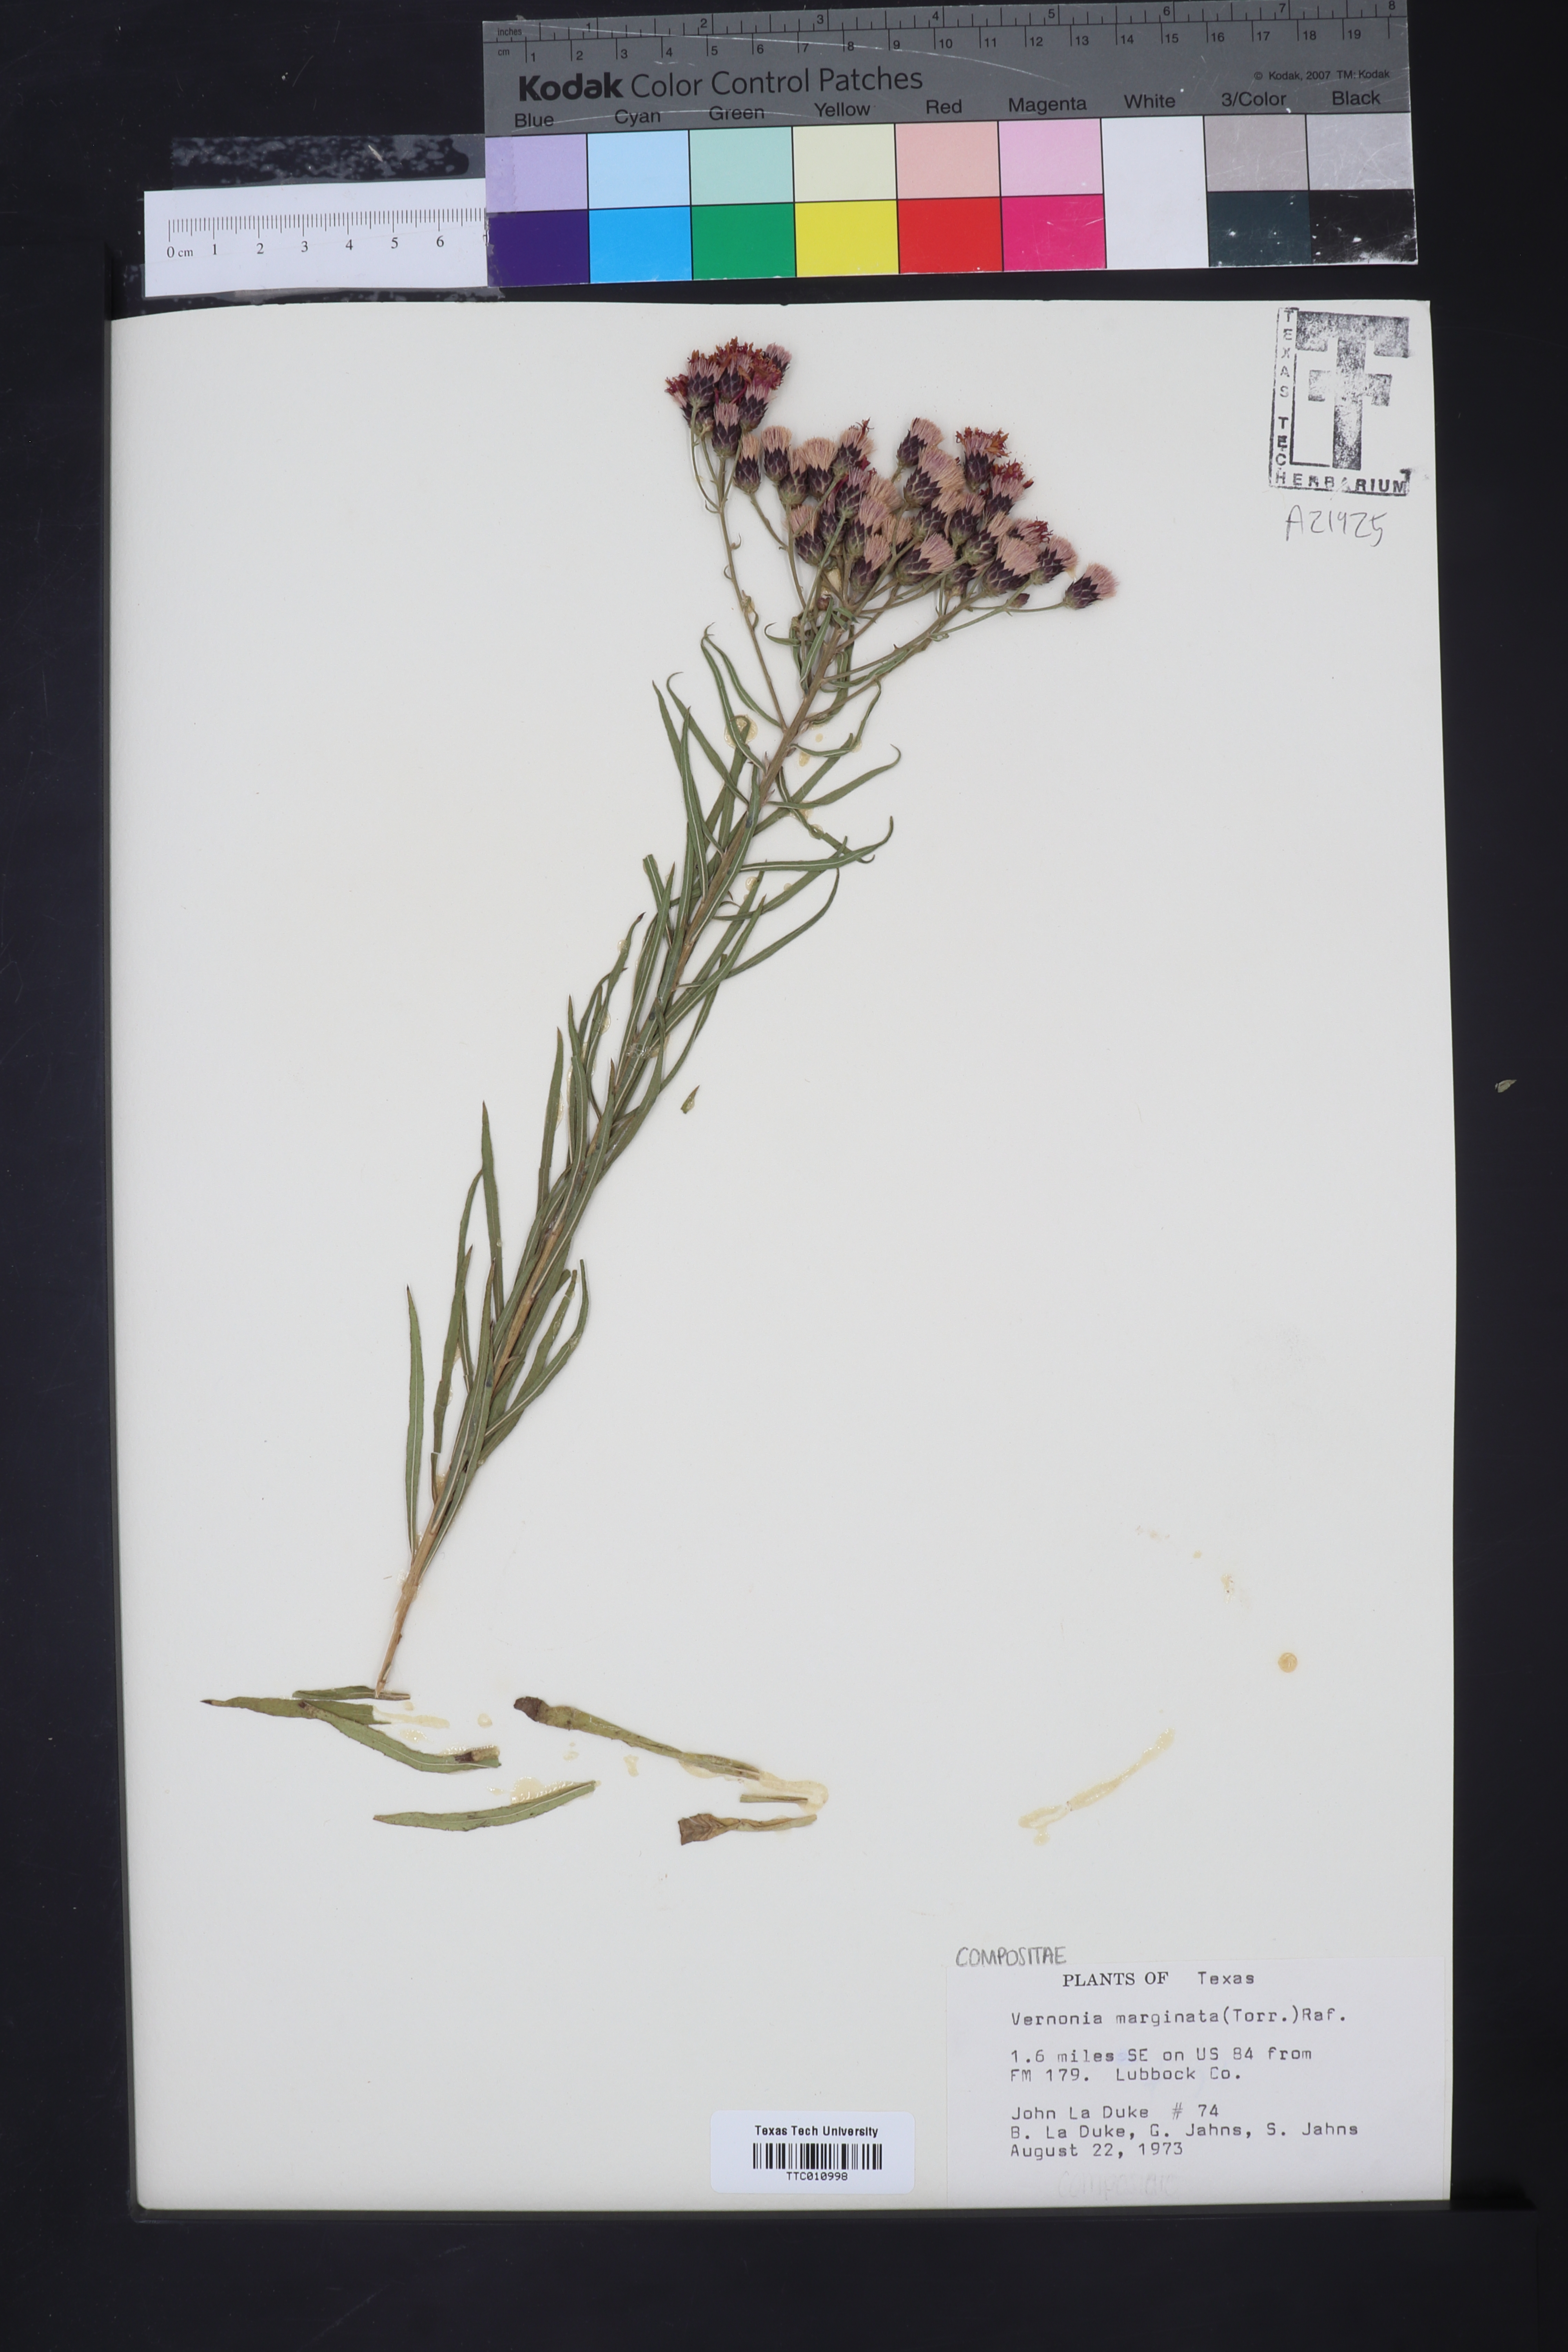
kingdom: Plantae
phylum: Tracheophyta
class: Magnoliopsida
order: Asterales
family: Asteraceae
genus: Vernonia
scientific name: Vernonia marginata
